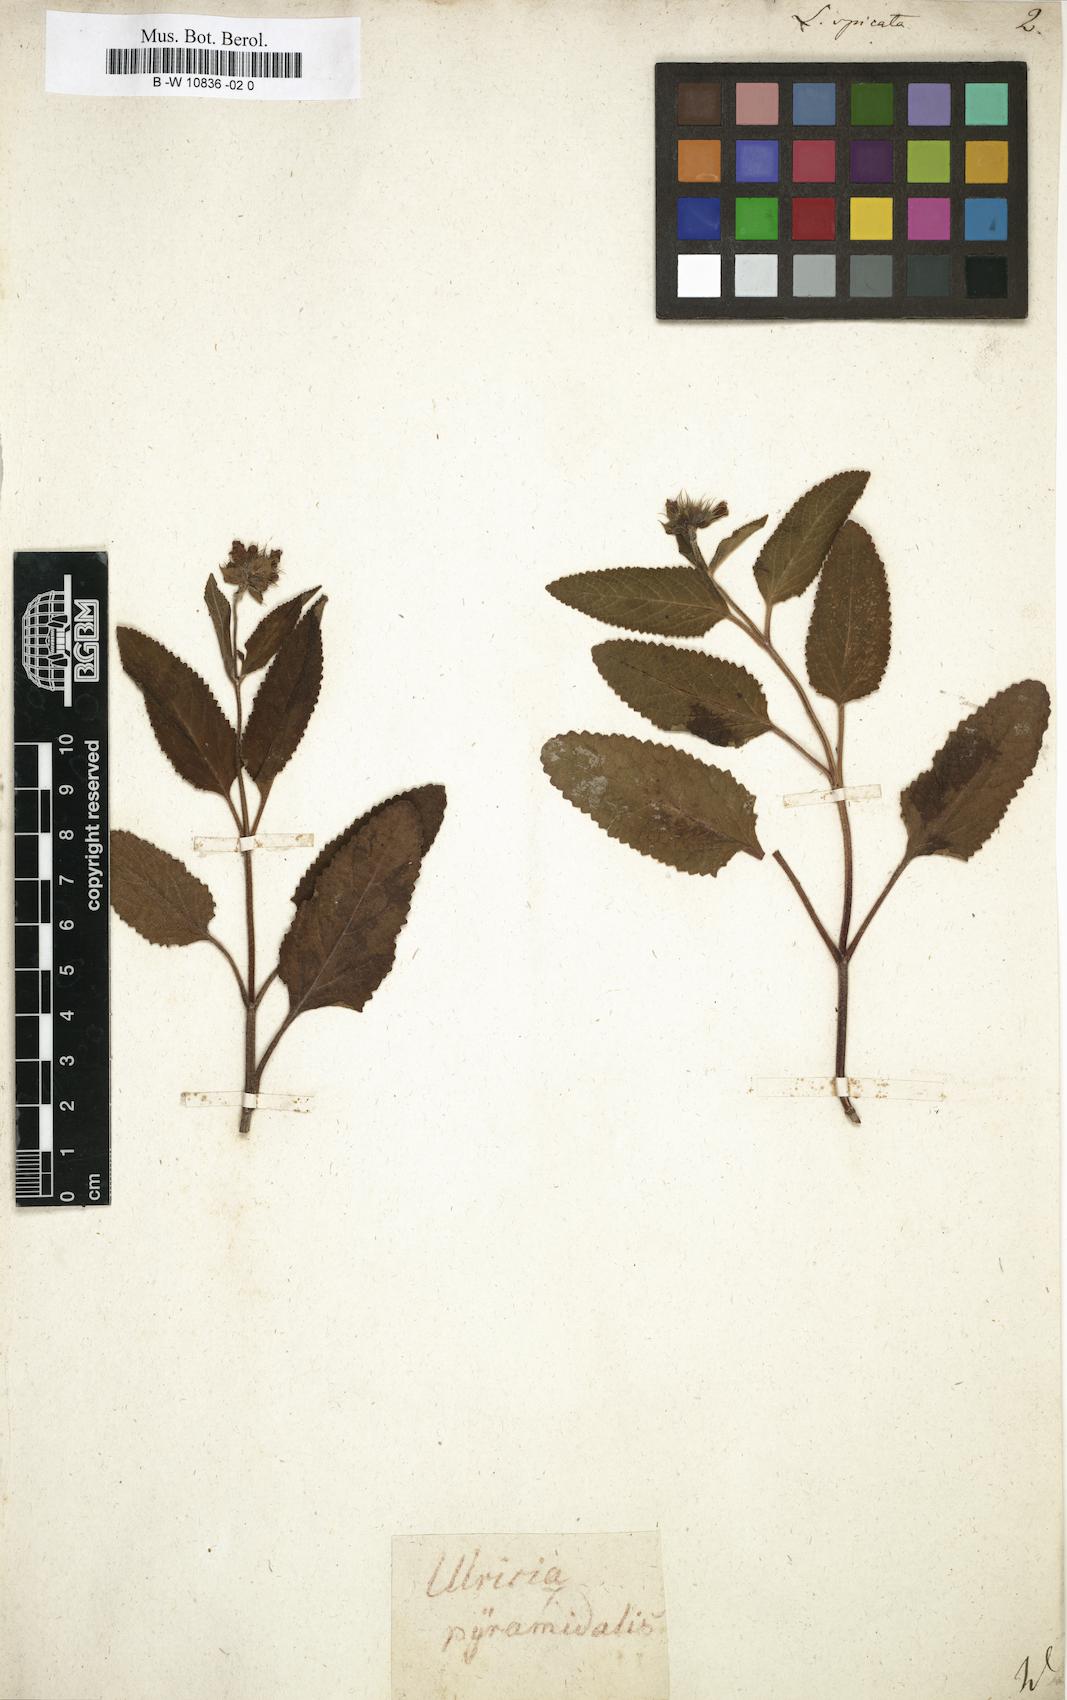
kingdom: Plantae
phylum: Tracheophyta
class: Magnoliopsida
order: Lamiales
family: Lamiaceae
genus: Lepechinia
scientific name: Lepechinia caulescens
